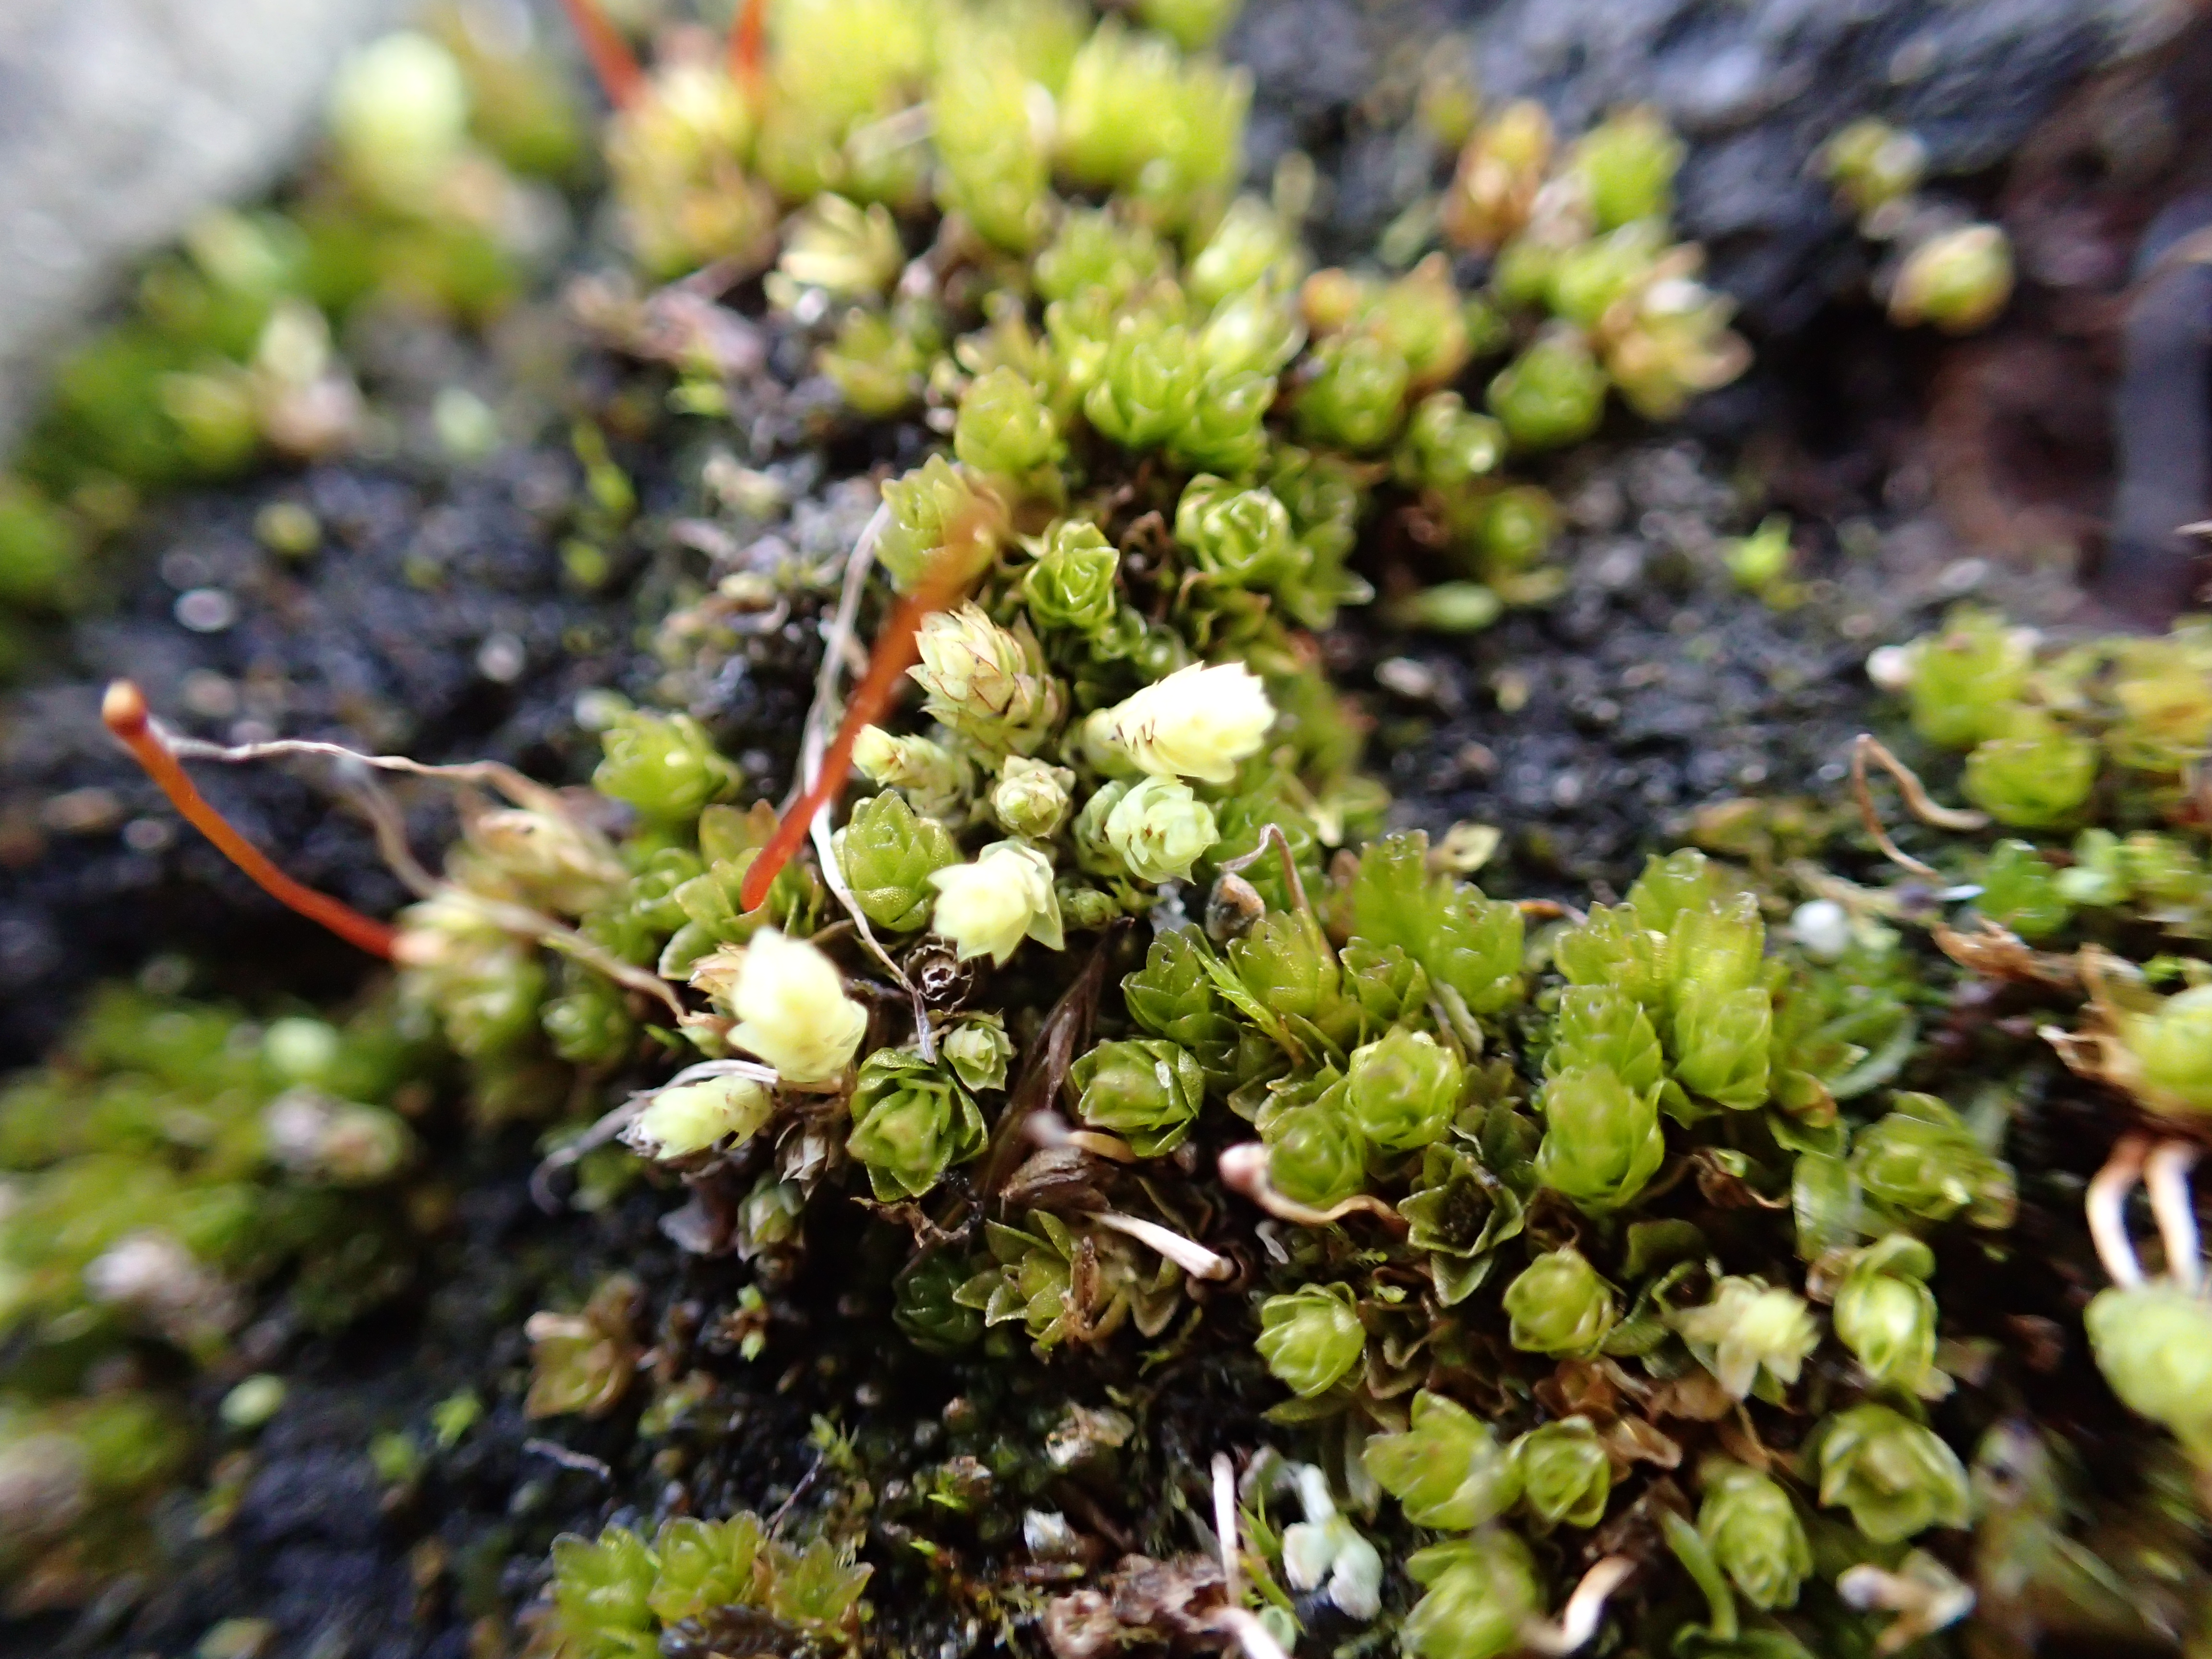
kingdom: Plantae
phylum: Bryophyta
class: Bryopsida
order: Splachnales
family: Splachnaceae
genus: Tayloria
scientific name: Tayloria froelichiana
